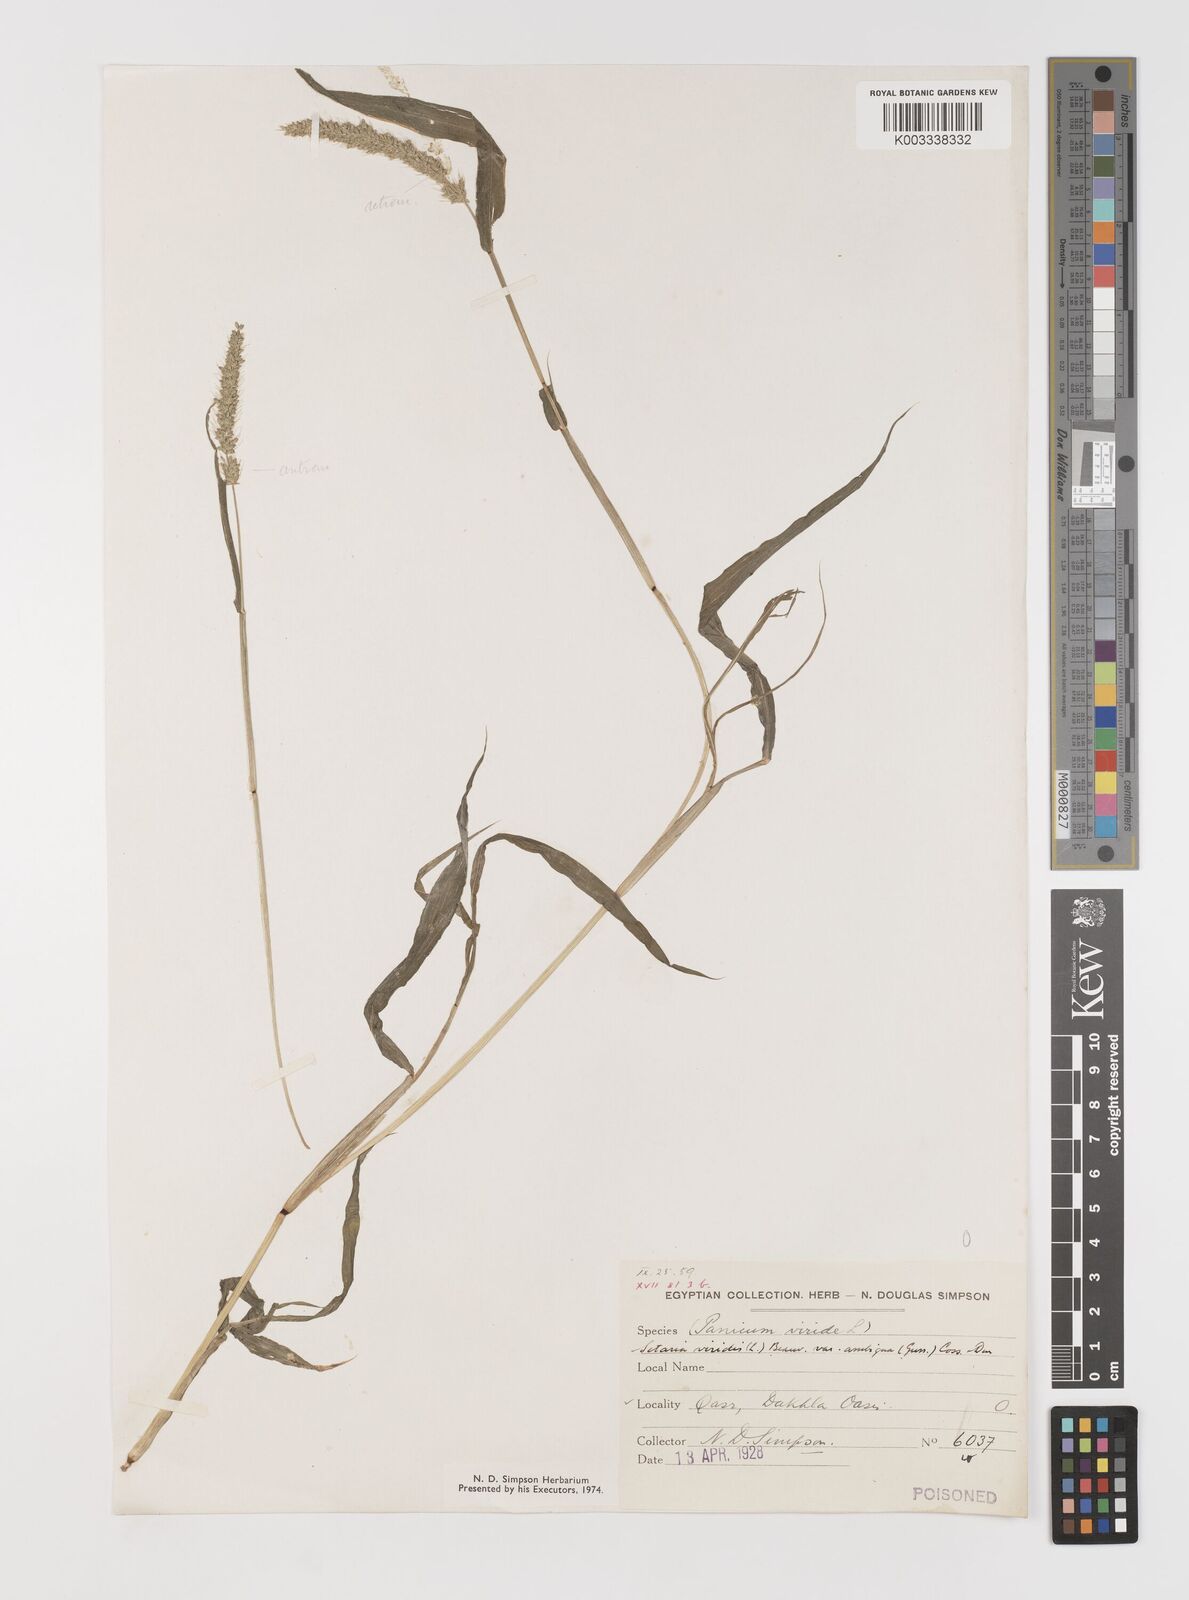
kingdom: Plantae
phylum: Tracheophyta
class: Liliopsida
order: Poales
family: Poaceae
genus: Setaria
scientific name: Setaria verticillata
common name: Hooked bristlegrass
